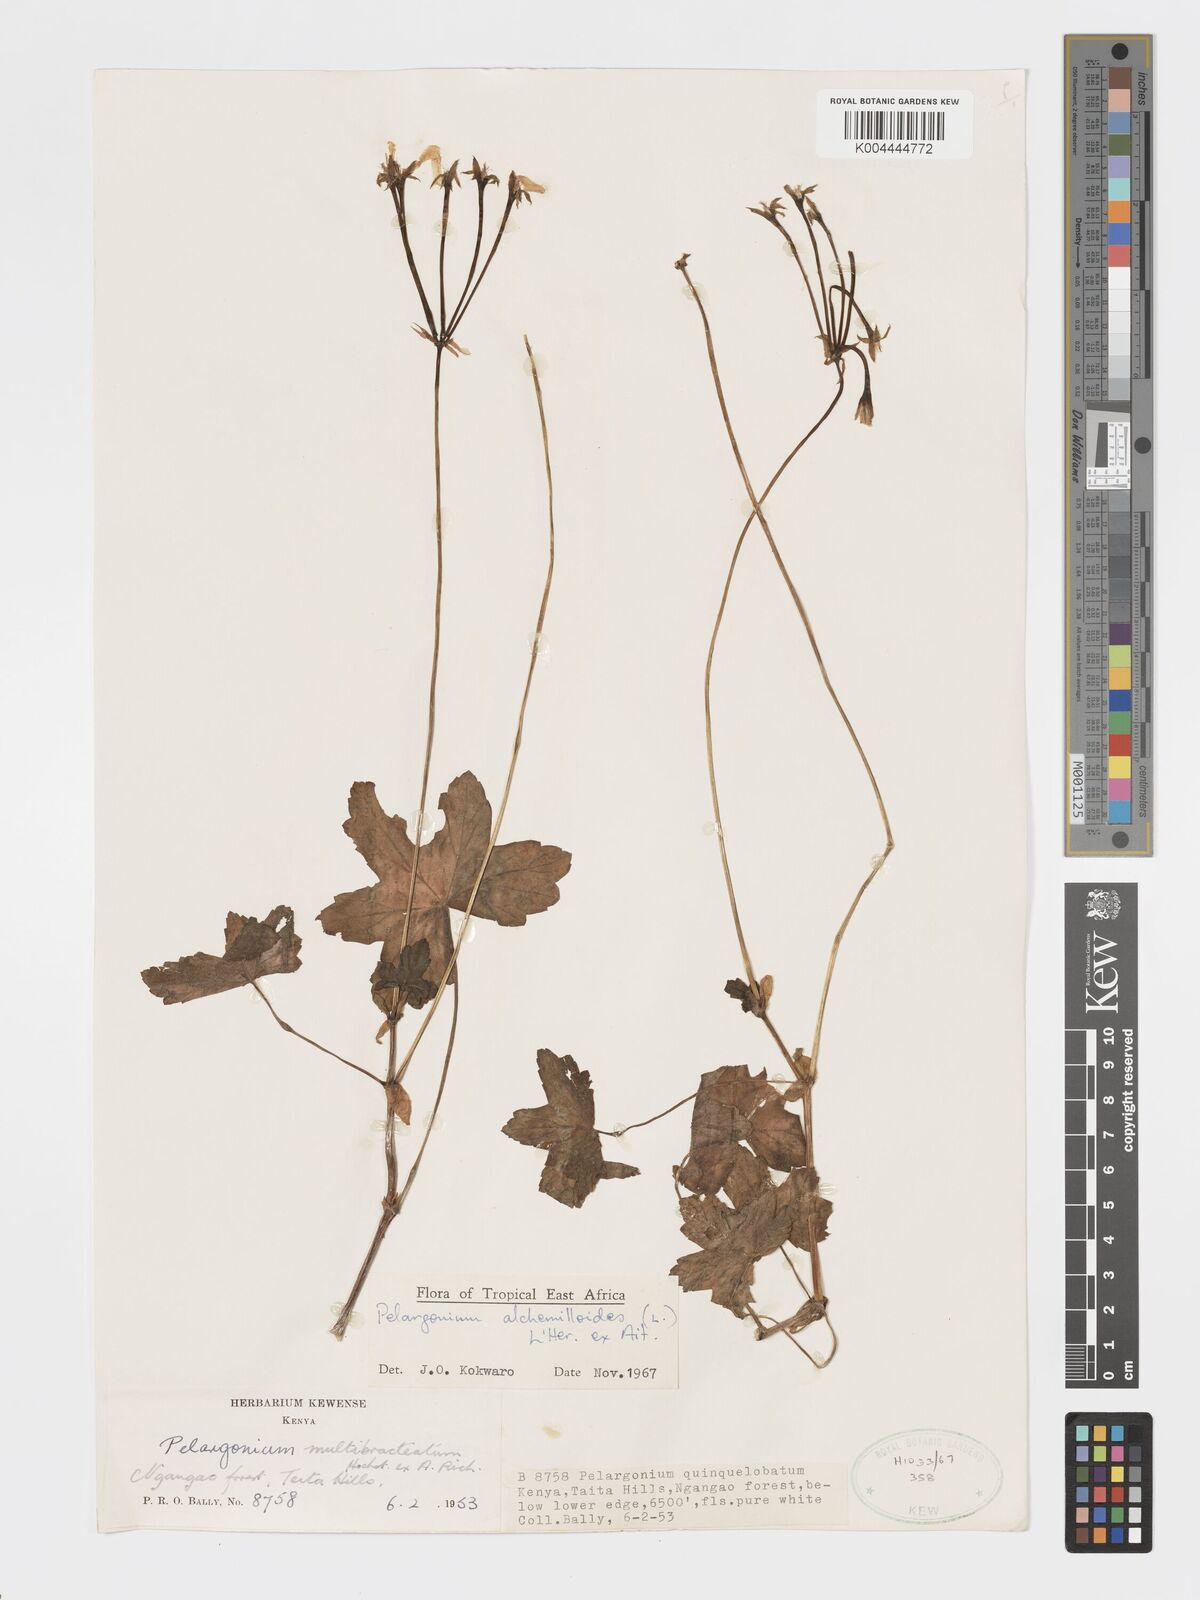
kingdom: Plantae
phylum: Tracheophyta
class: Magnoliopsida
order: Geraniales
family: Geraniaceae
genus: Pelargonium
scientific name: Pelargonium alchemilloides
